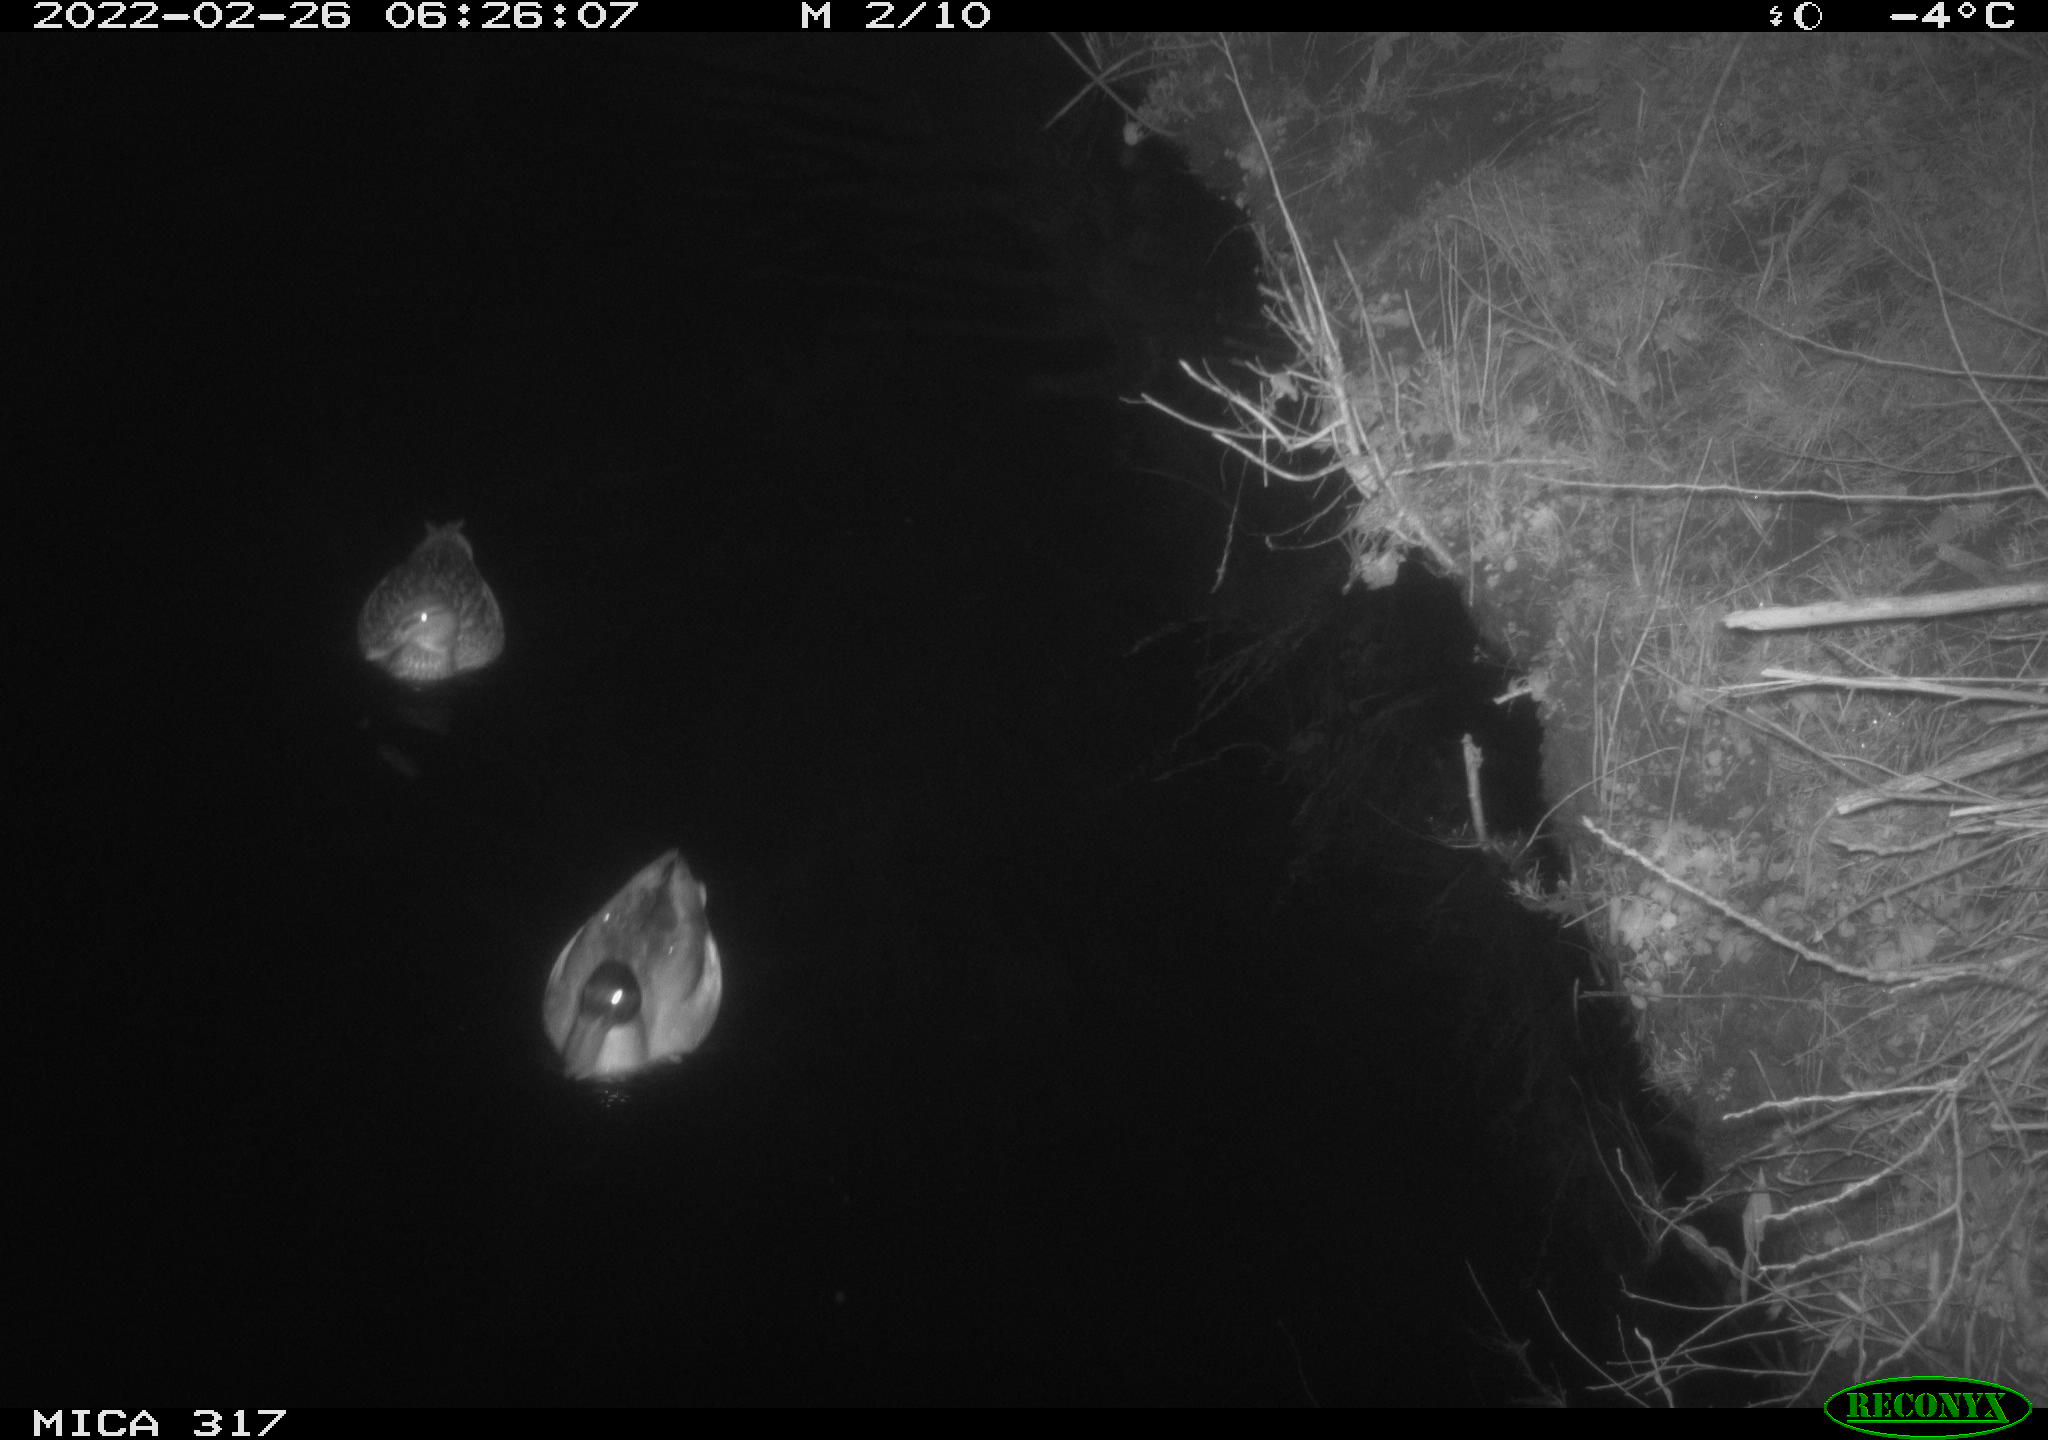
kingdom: Animalia
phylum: Chordata
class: Aves
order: Anseriformes
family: Anatidae
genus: Anas
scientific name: Anas platyrhynchos
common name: Mallard
